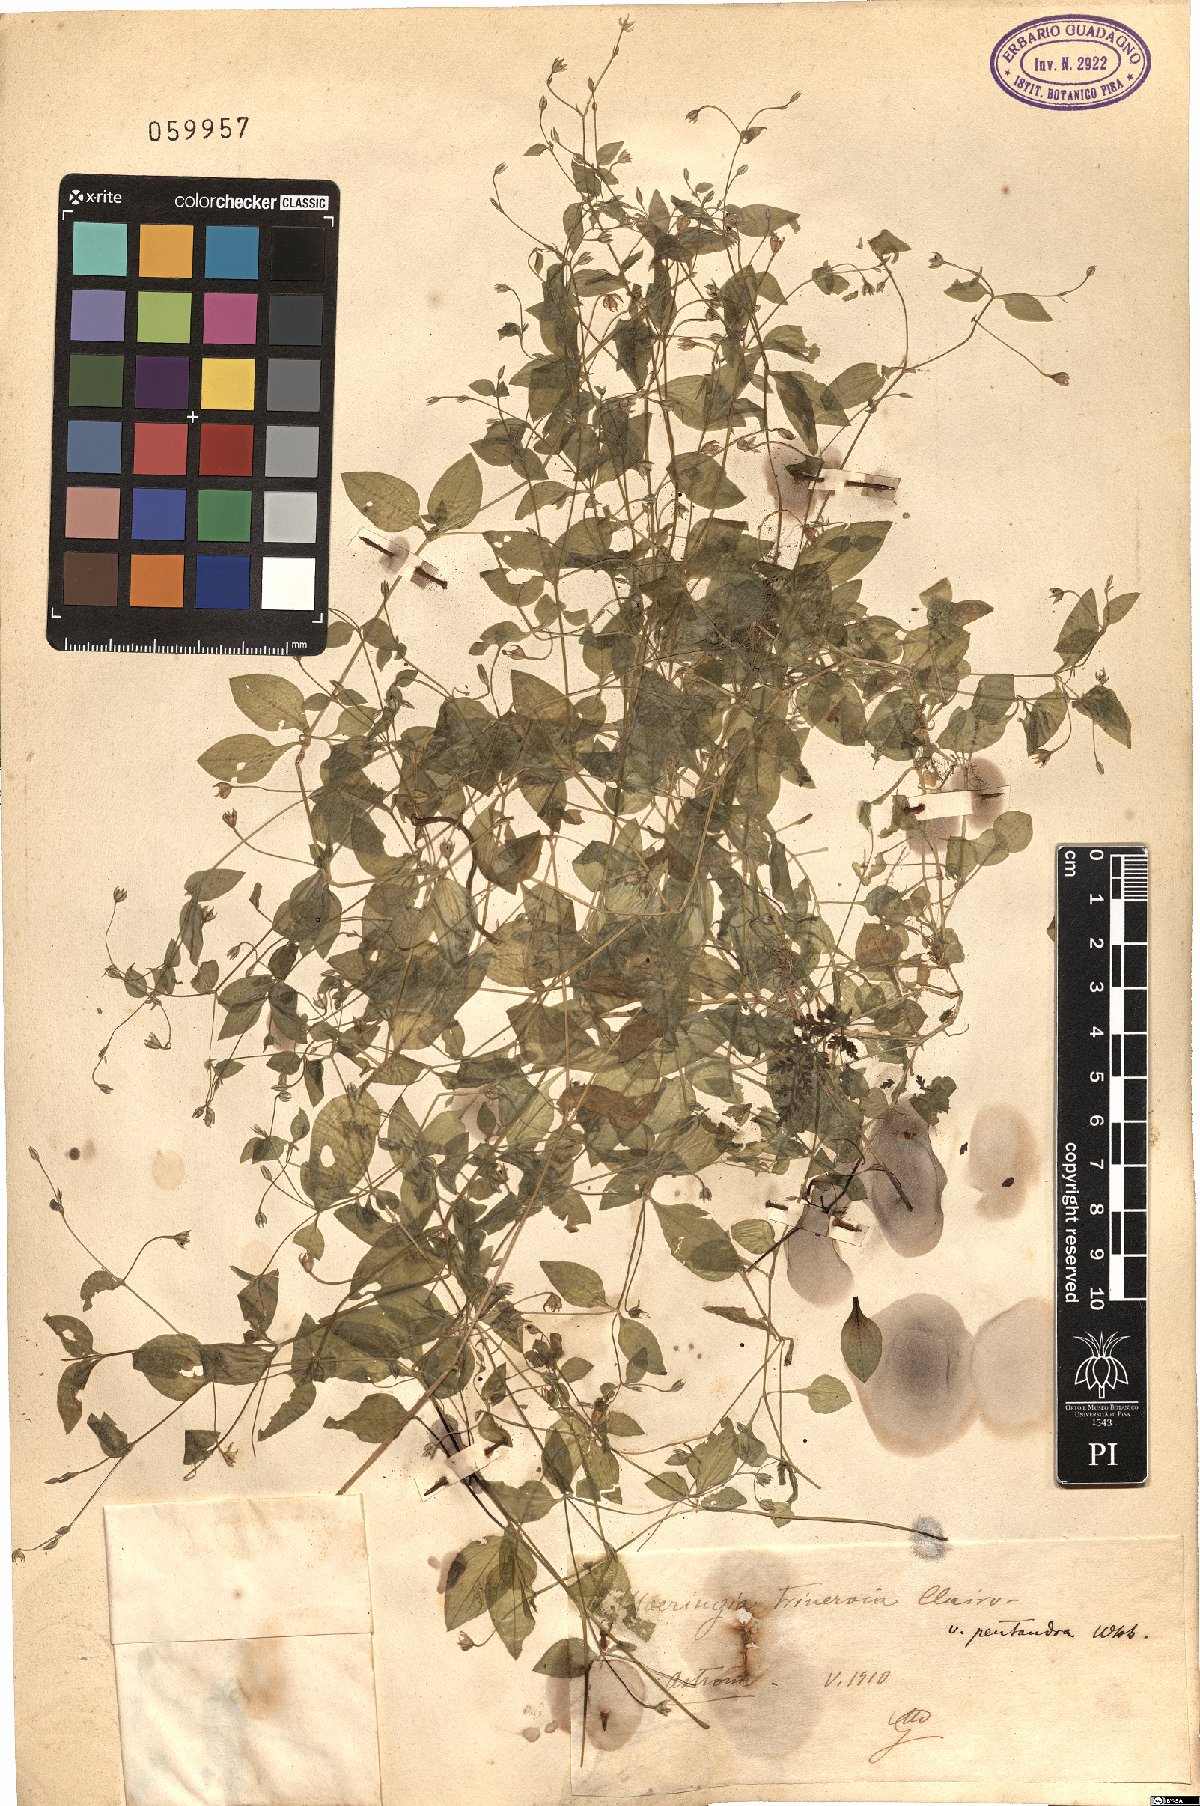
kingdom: Plantae
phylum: Tracheophyta
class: Magnoliopsida
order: Caryophyllales
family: Caryophyllaceae
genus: Moehringia
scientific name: Moehringia trinervia
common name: Three-nerved sandwort
